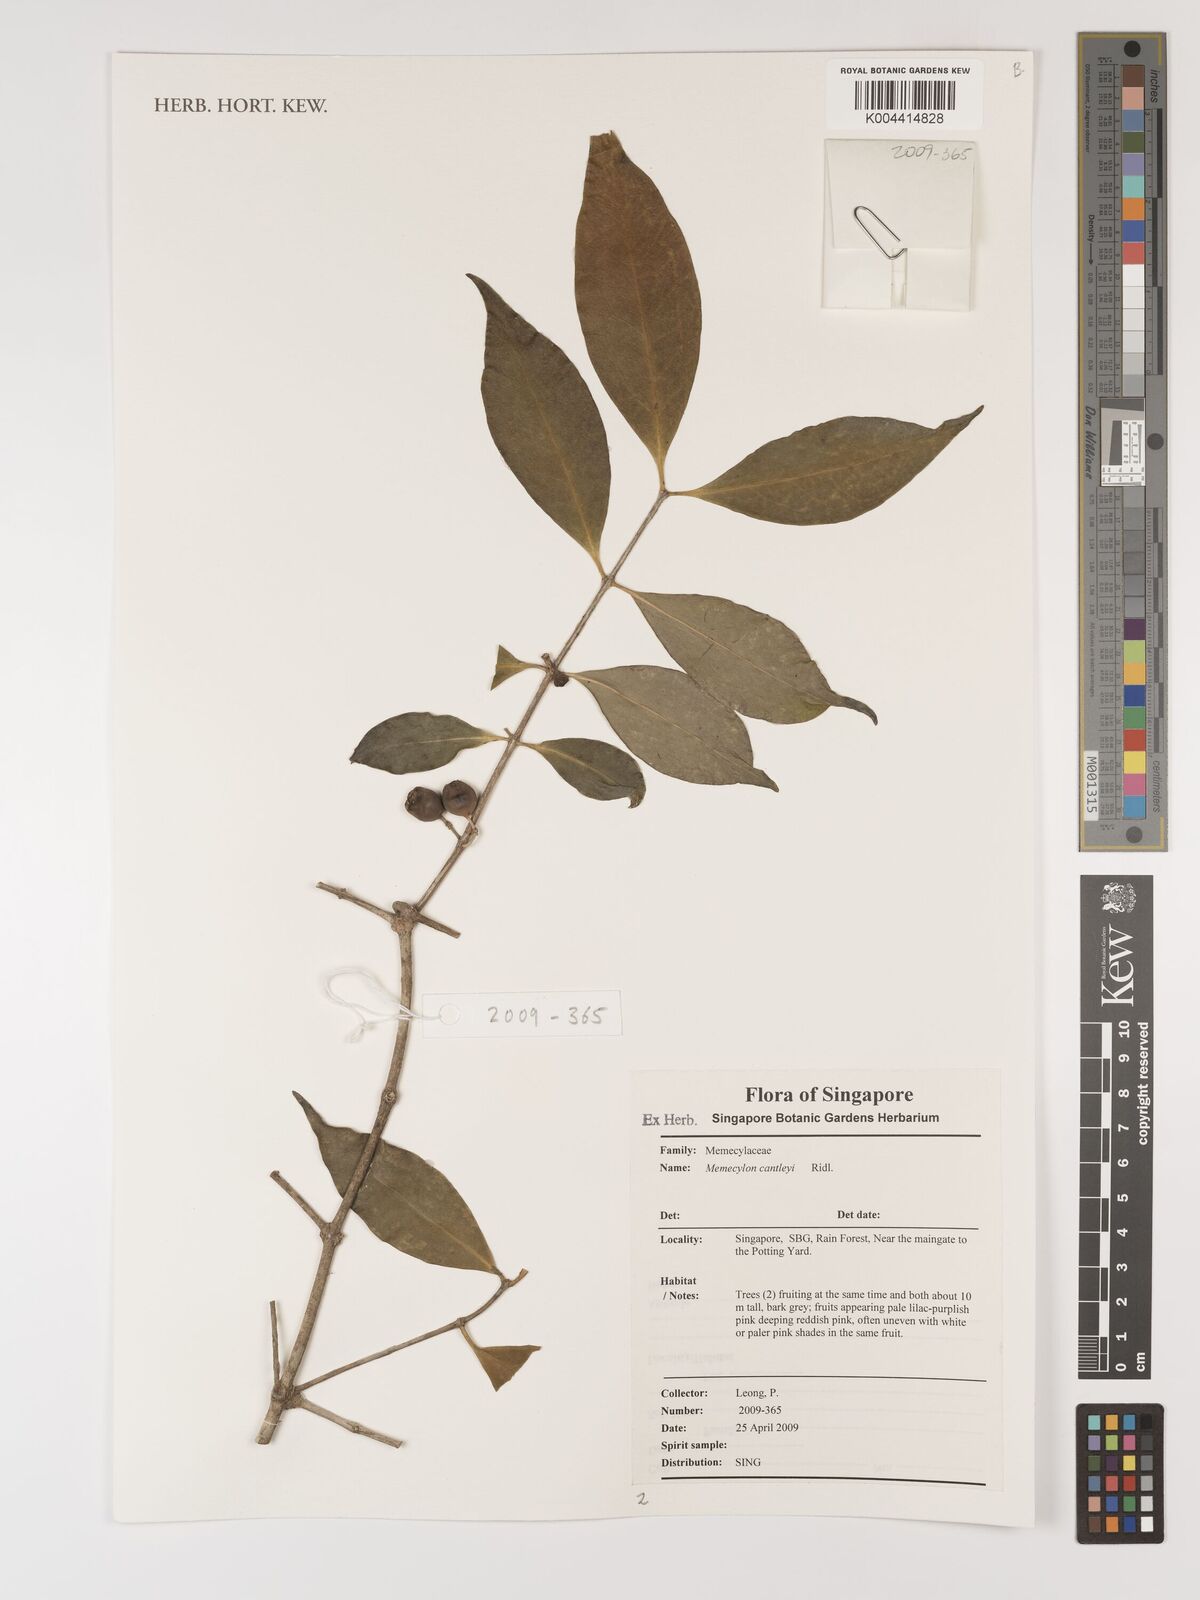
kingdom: Plantae
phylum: Tracheophyta
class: Magnoliopsida
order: Myrtales
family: Melastomataceae
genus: Memecylon
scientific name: Memecylon cantleyi
